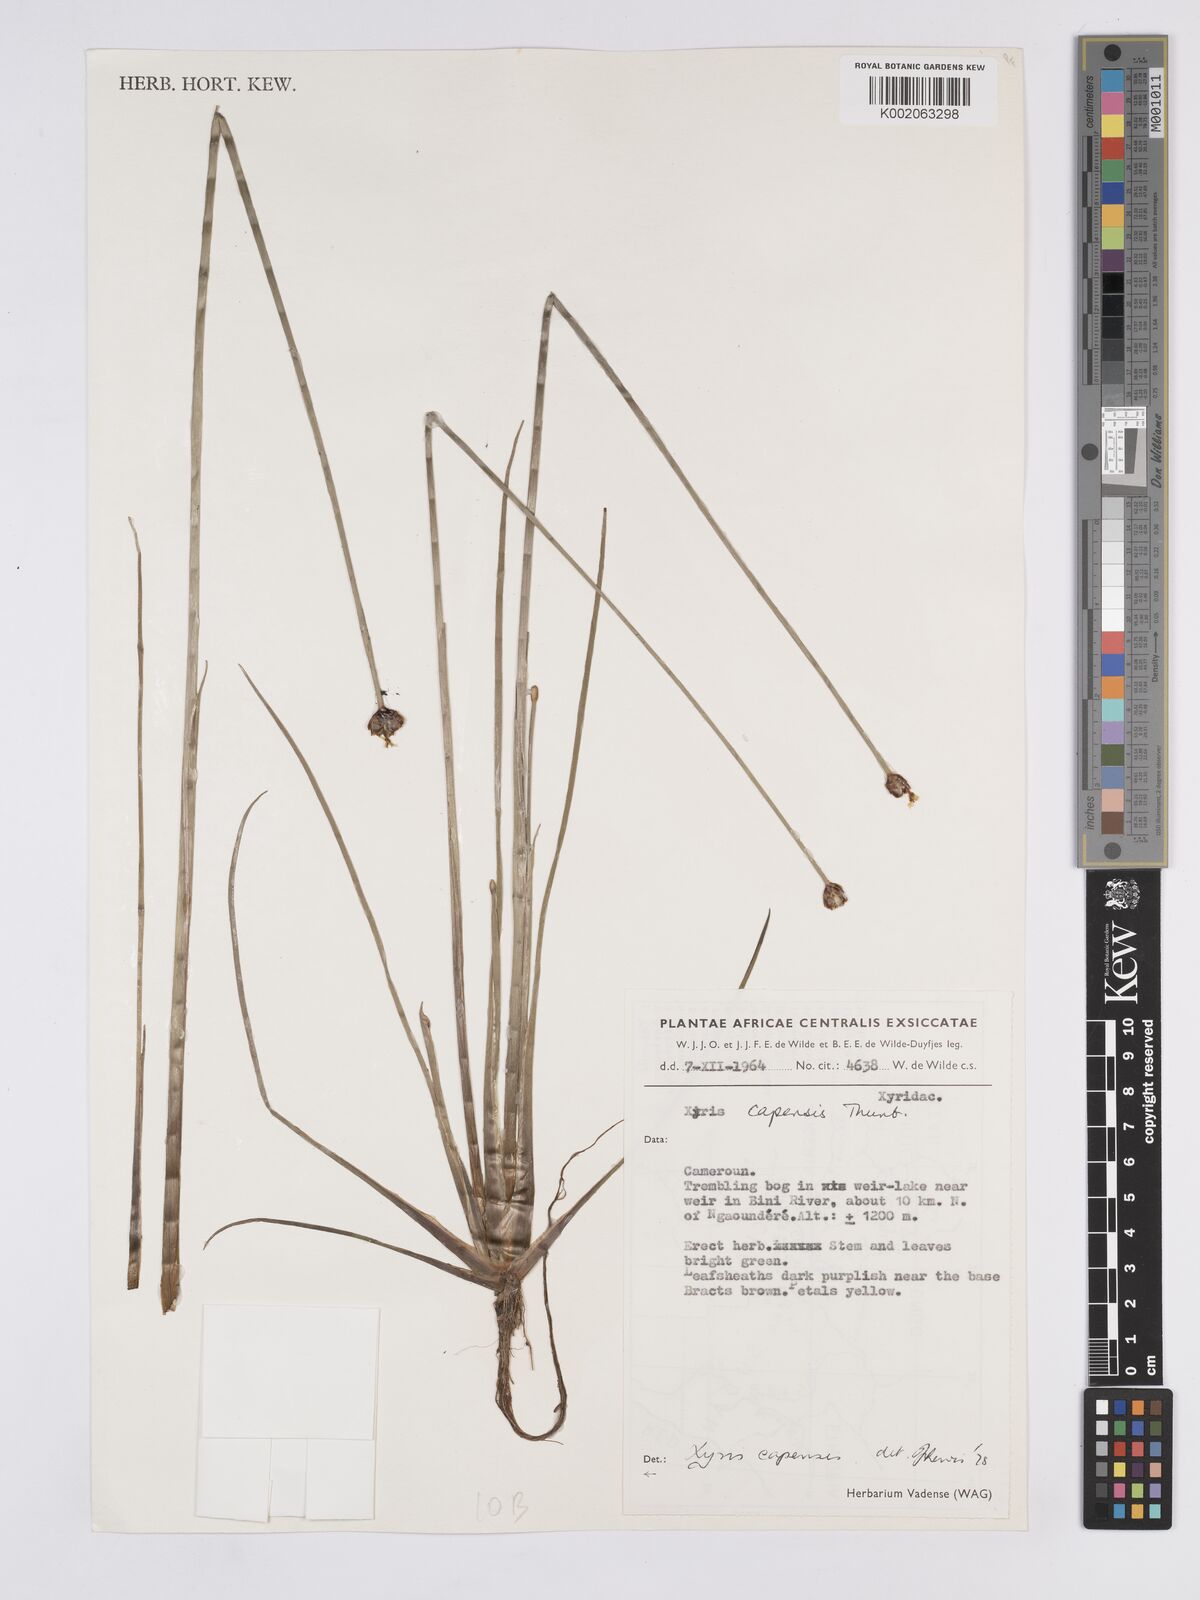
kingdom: Plantae
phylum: Tracheophyta
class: Liliopsida
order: Poales
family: Xyridaceae
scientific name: Xyridaceae
